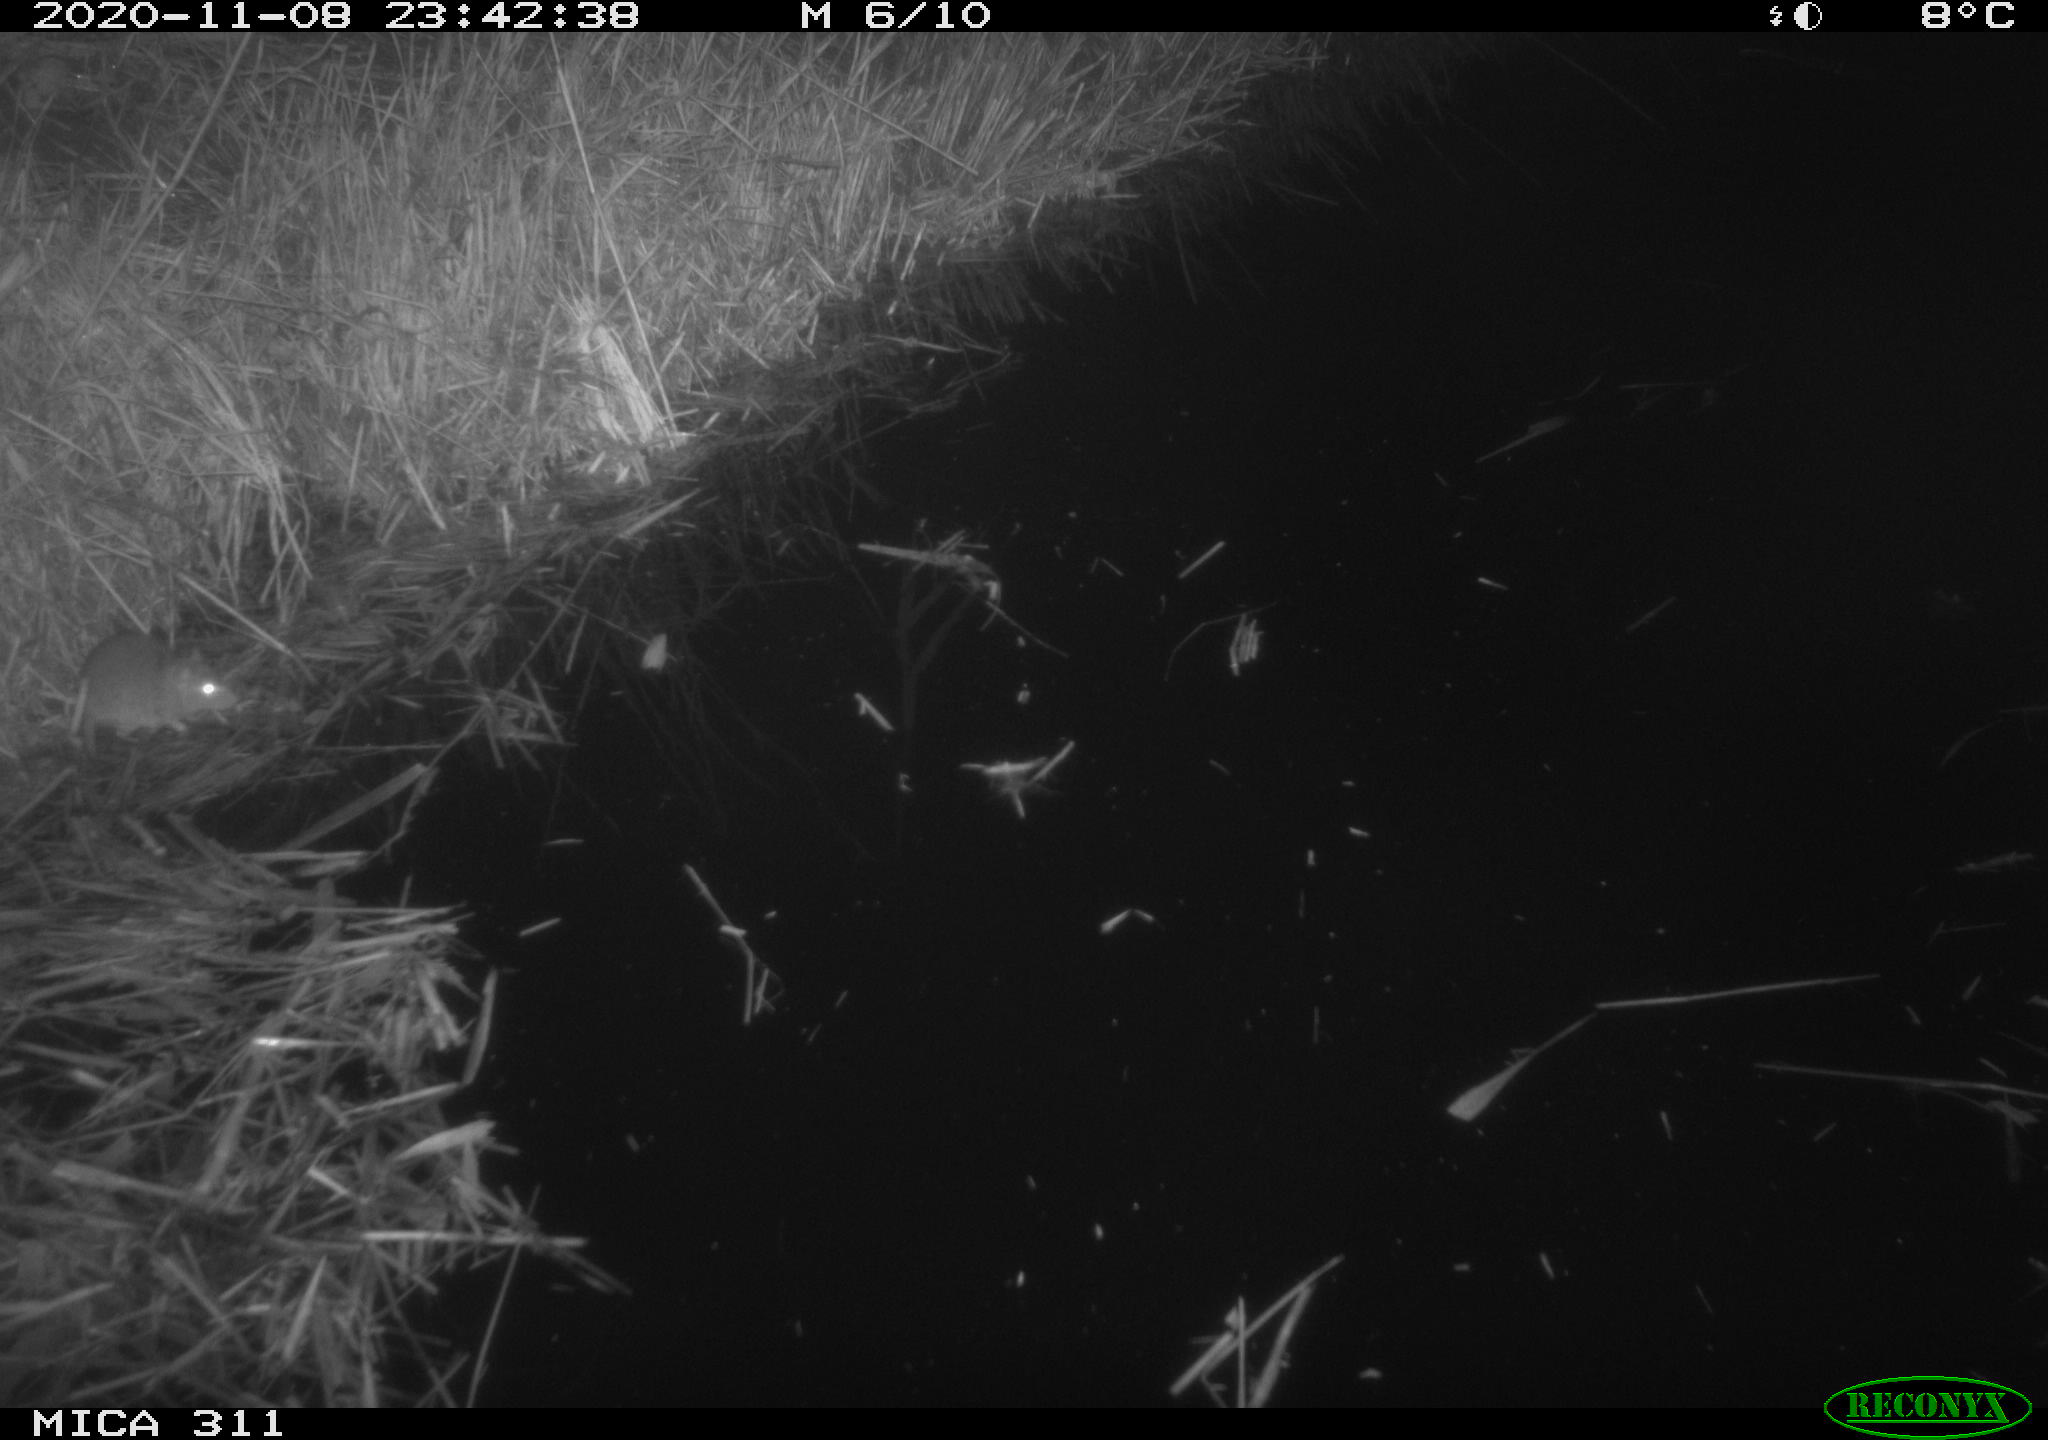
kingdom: Animalia
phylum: Chordata
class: Mammalia
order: Rodentia
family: Muridae
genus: Rattus
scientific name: Rattus norvegicus
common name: Brown rat
